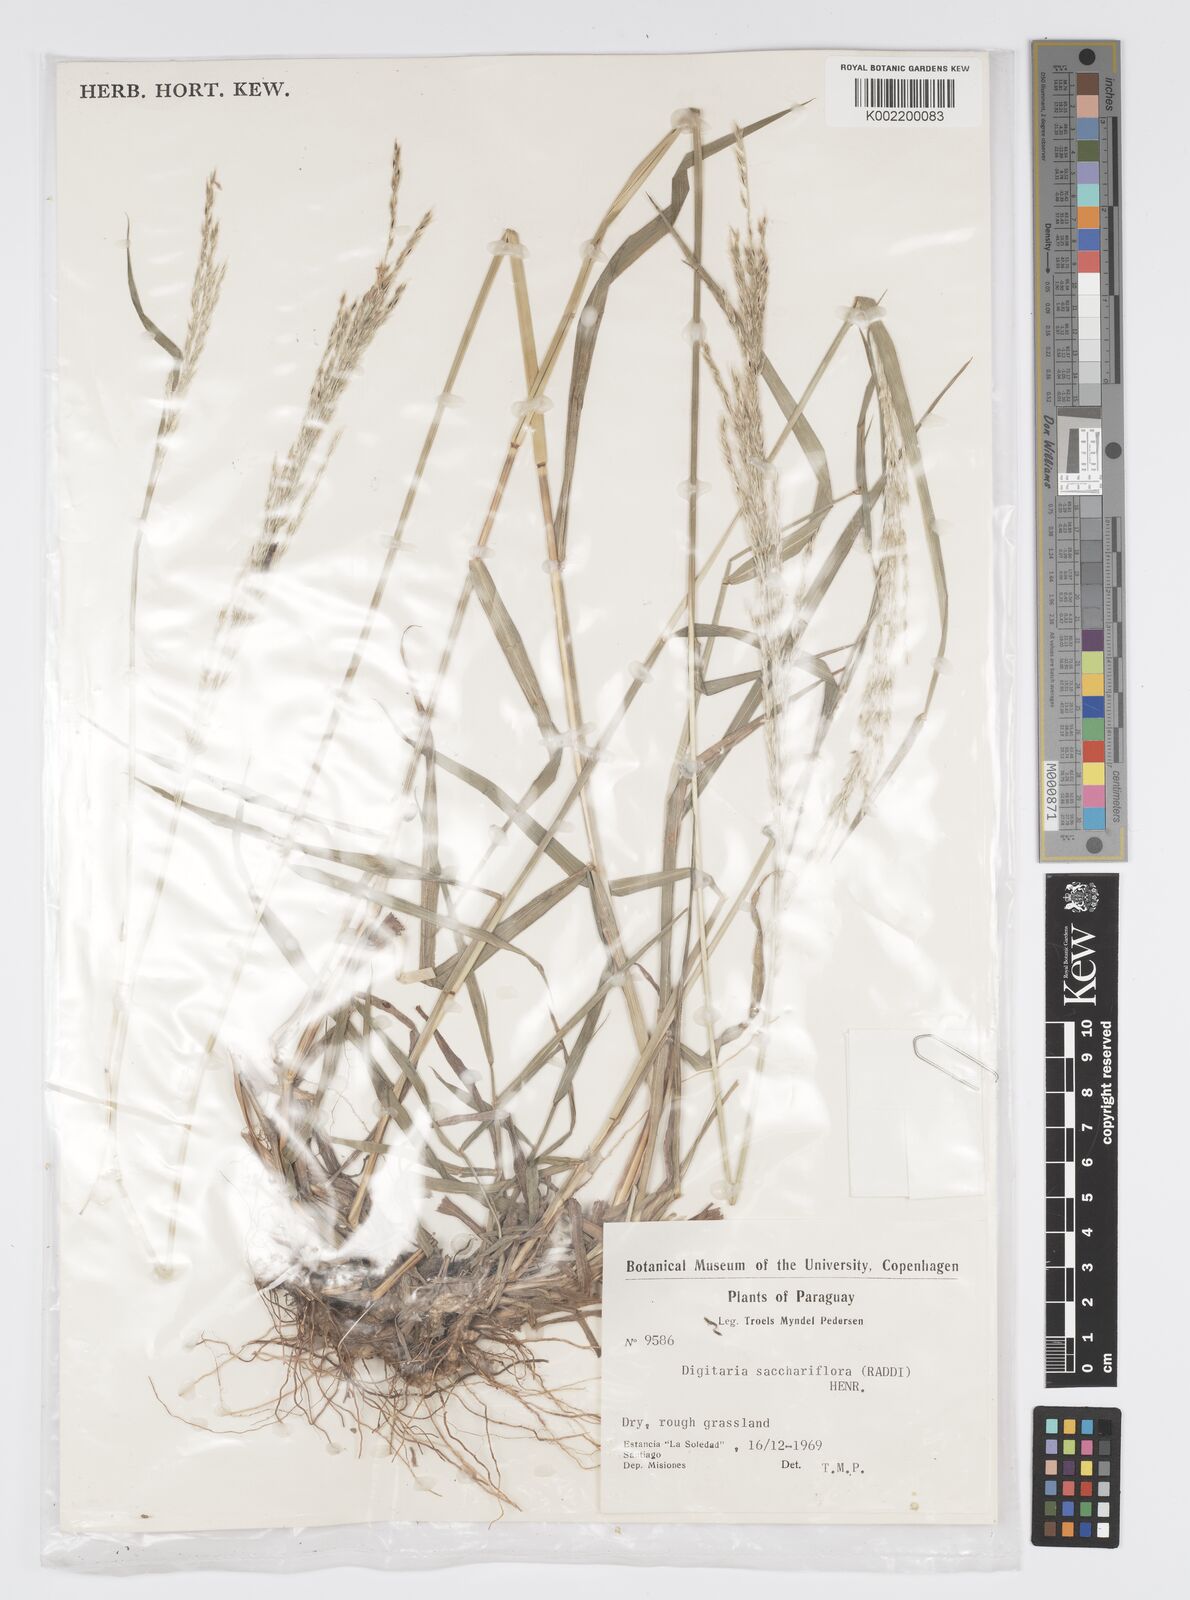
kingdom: Plantae
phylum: Tracheophyta
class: Liliopsida
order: Poales
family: Poaceae
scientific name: Poaceae
